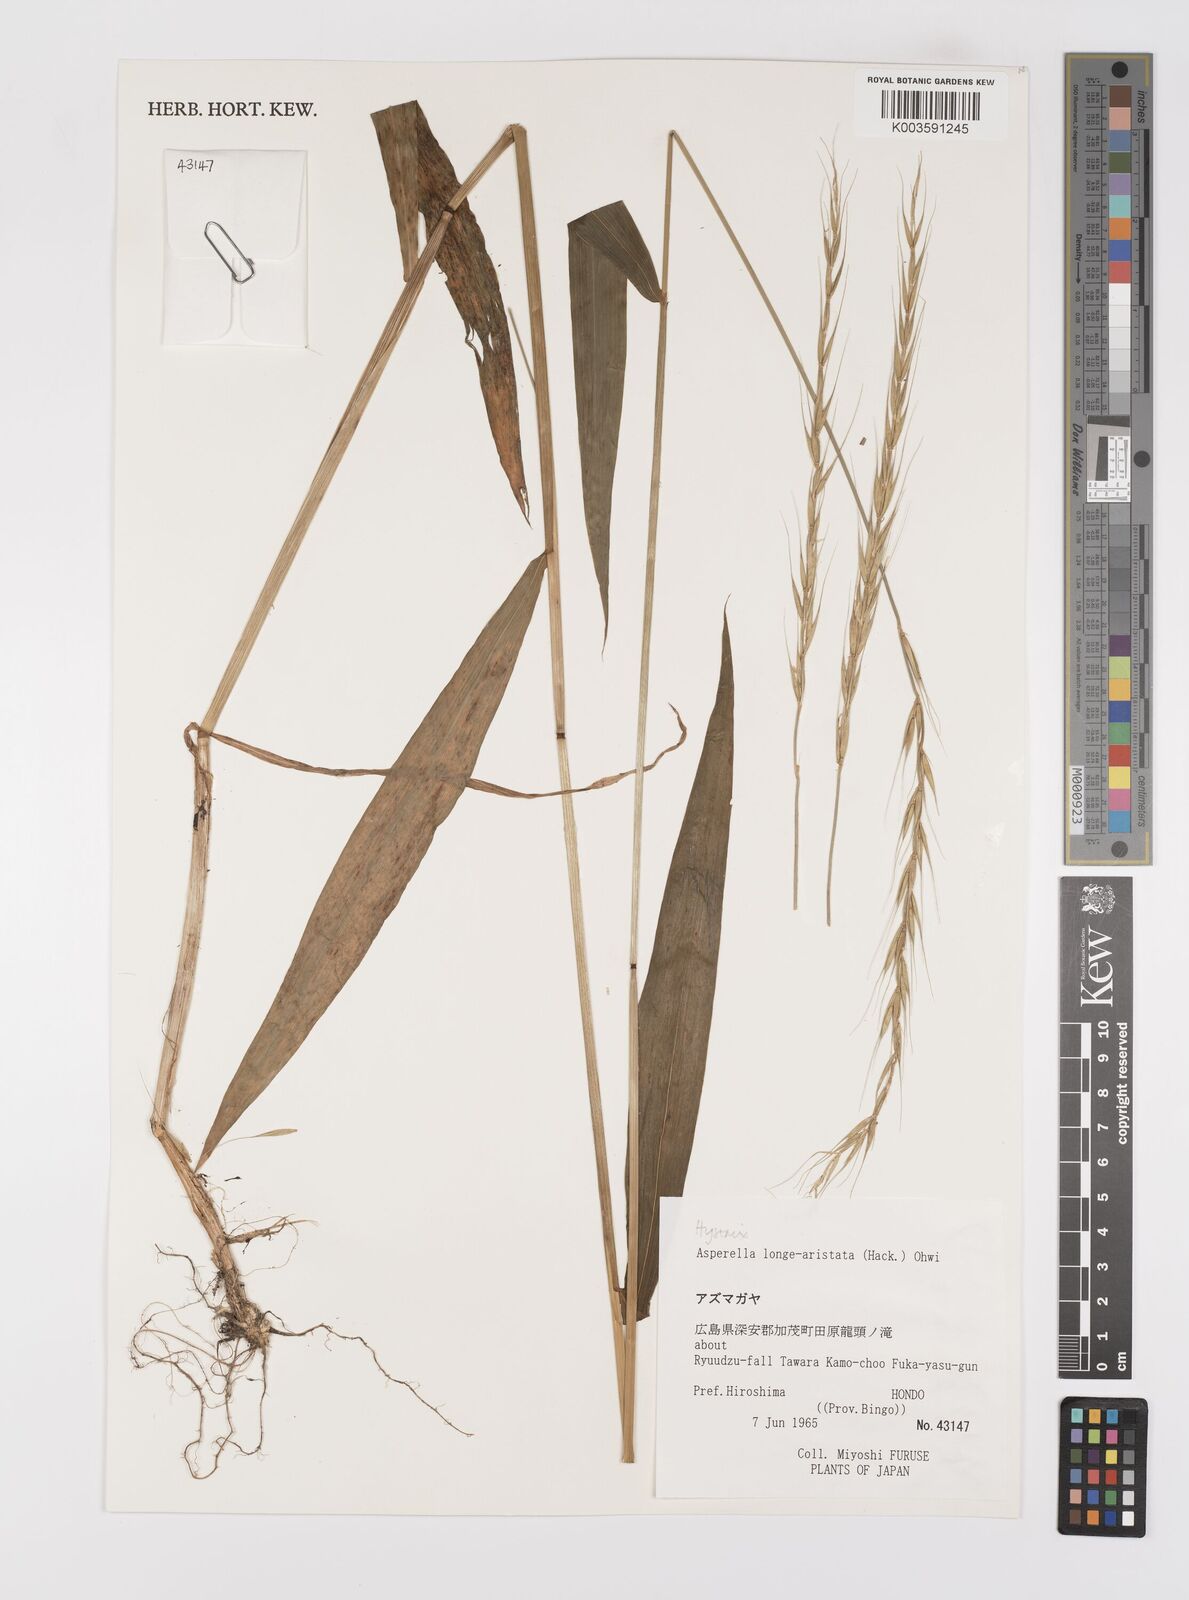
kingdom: Plantae
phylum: Tracheophyta
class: Liliopsida
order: Poales
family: Poaceae
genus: Leymus
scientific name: Leymus duthiei
